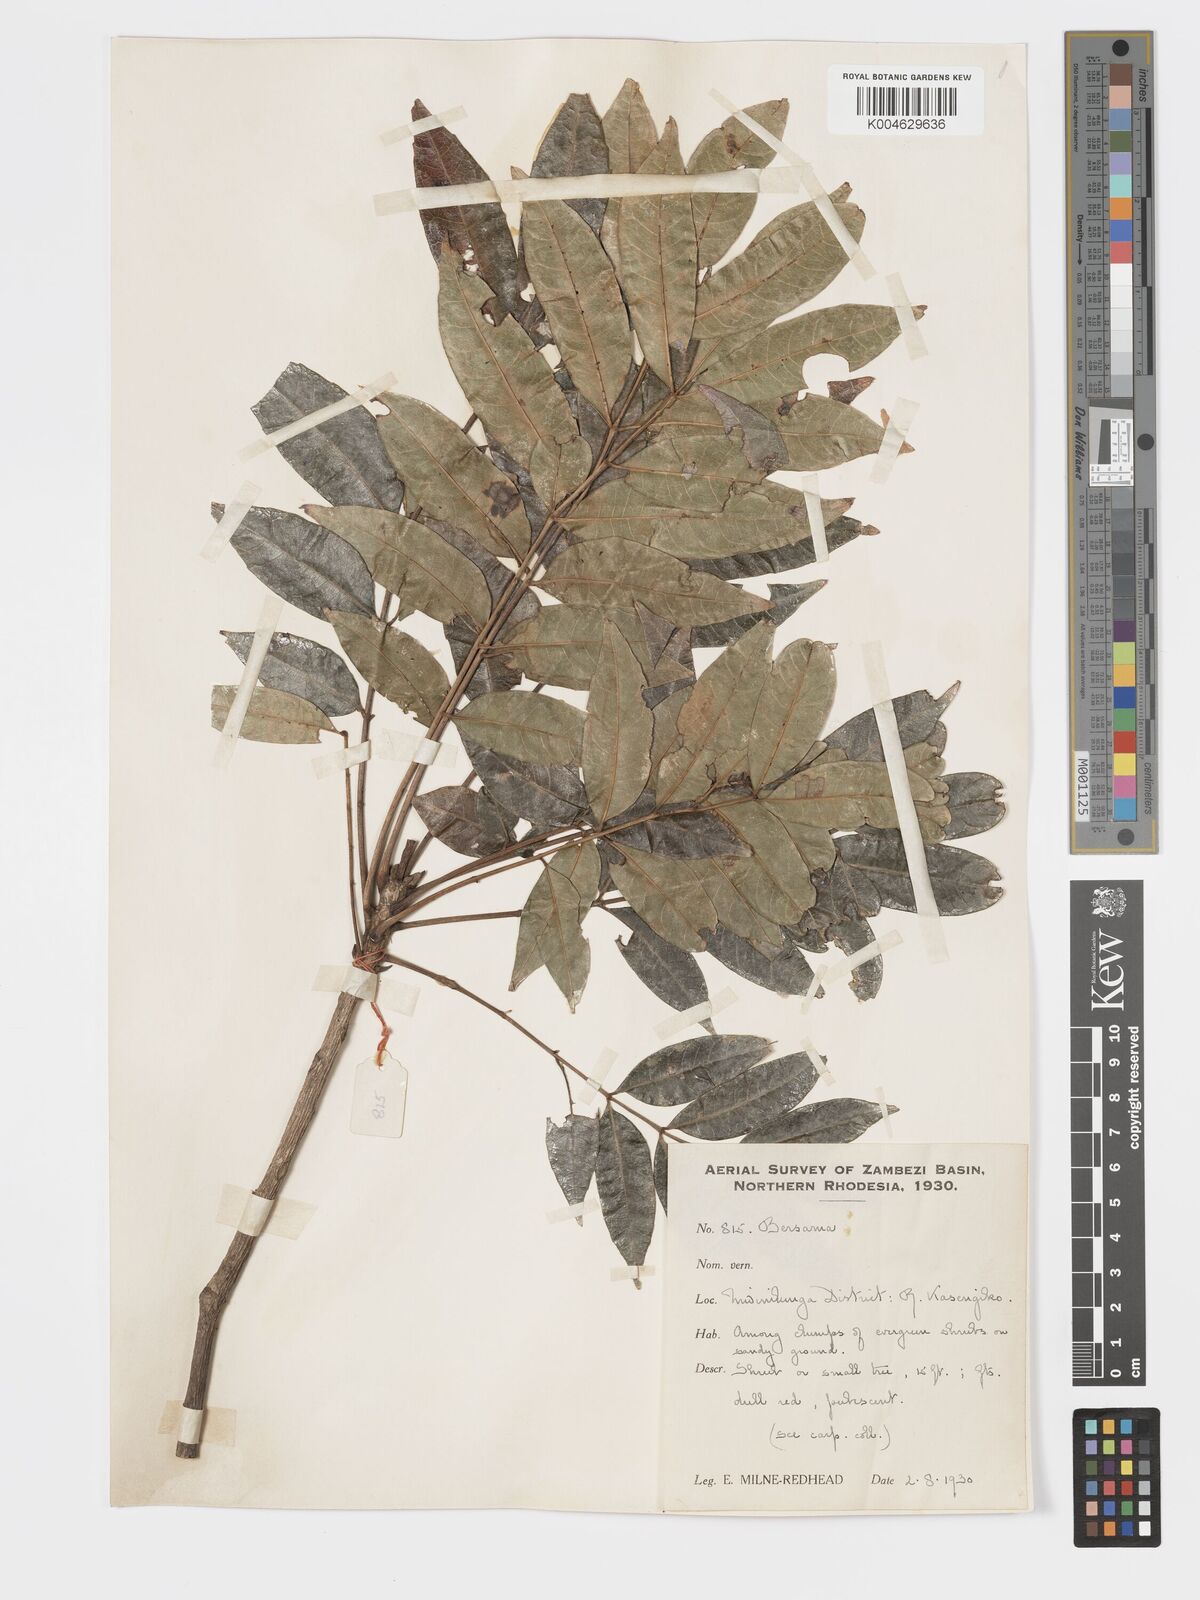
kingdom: Plantae
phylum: Tracheophyta
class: Magnoliopsida
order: Geraniales
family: Melianthaceae
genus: Bersama
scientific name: Bersama
